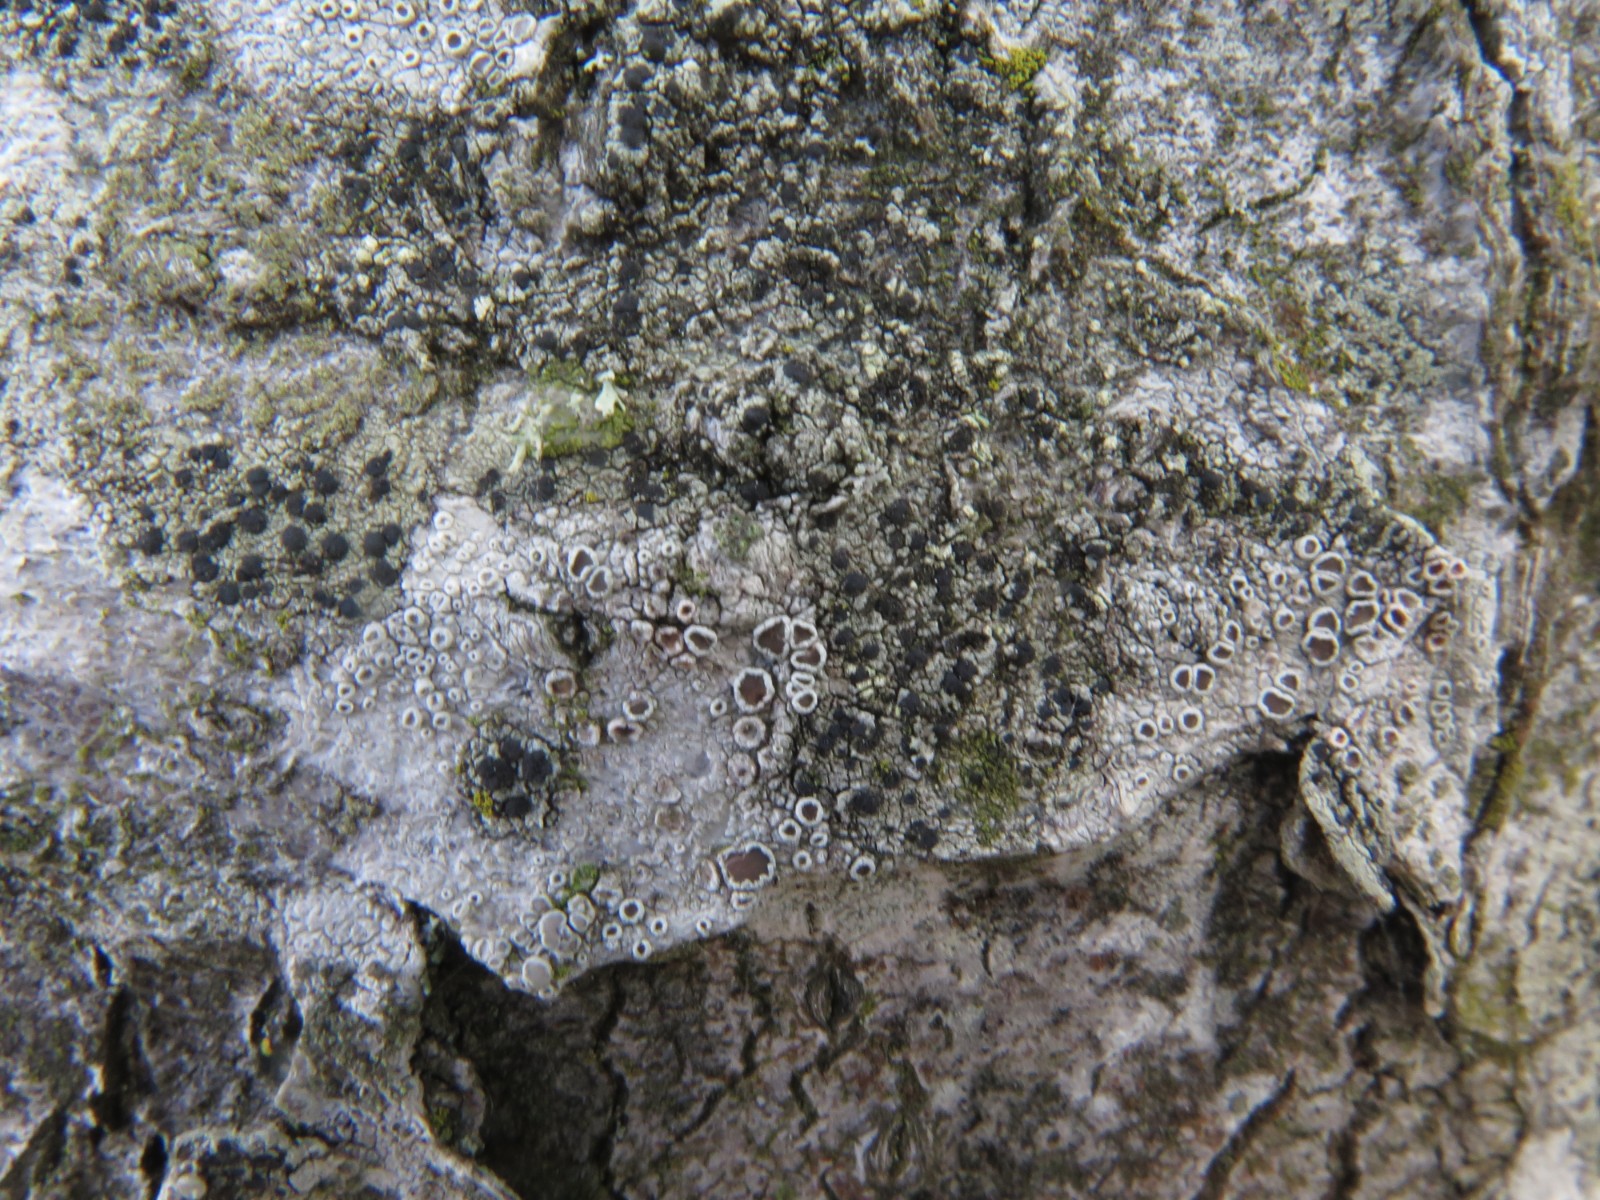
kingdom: Fungi
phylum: Ascomycota
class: Lecanoromycetes
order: Lecanorales
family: Lecanoraceae
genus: Lecidella
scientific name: Lecidella elaeochroma
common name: grågrøn skivelav
